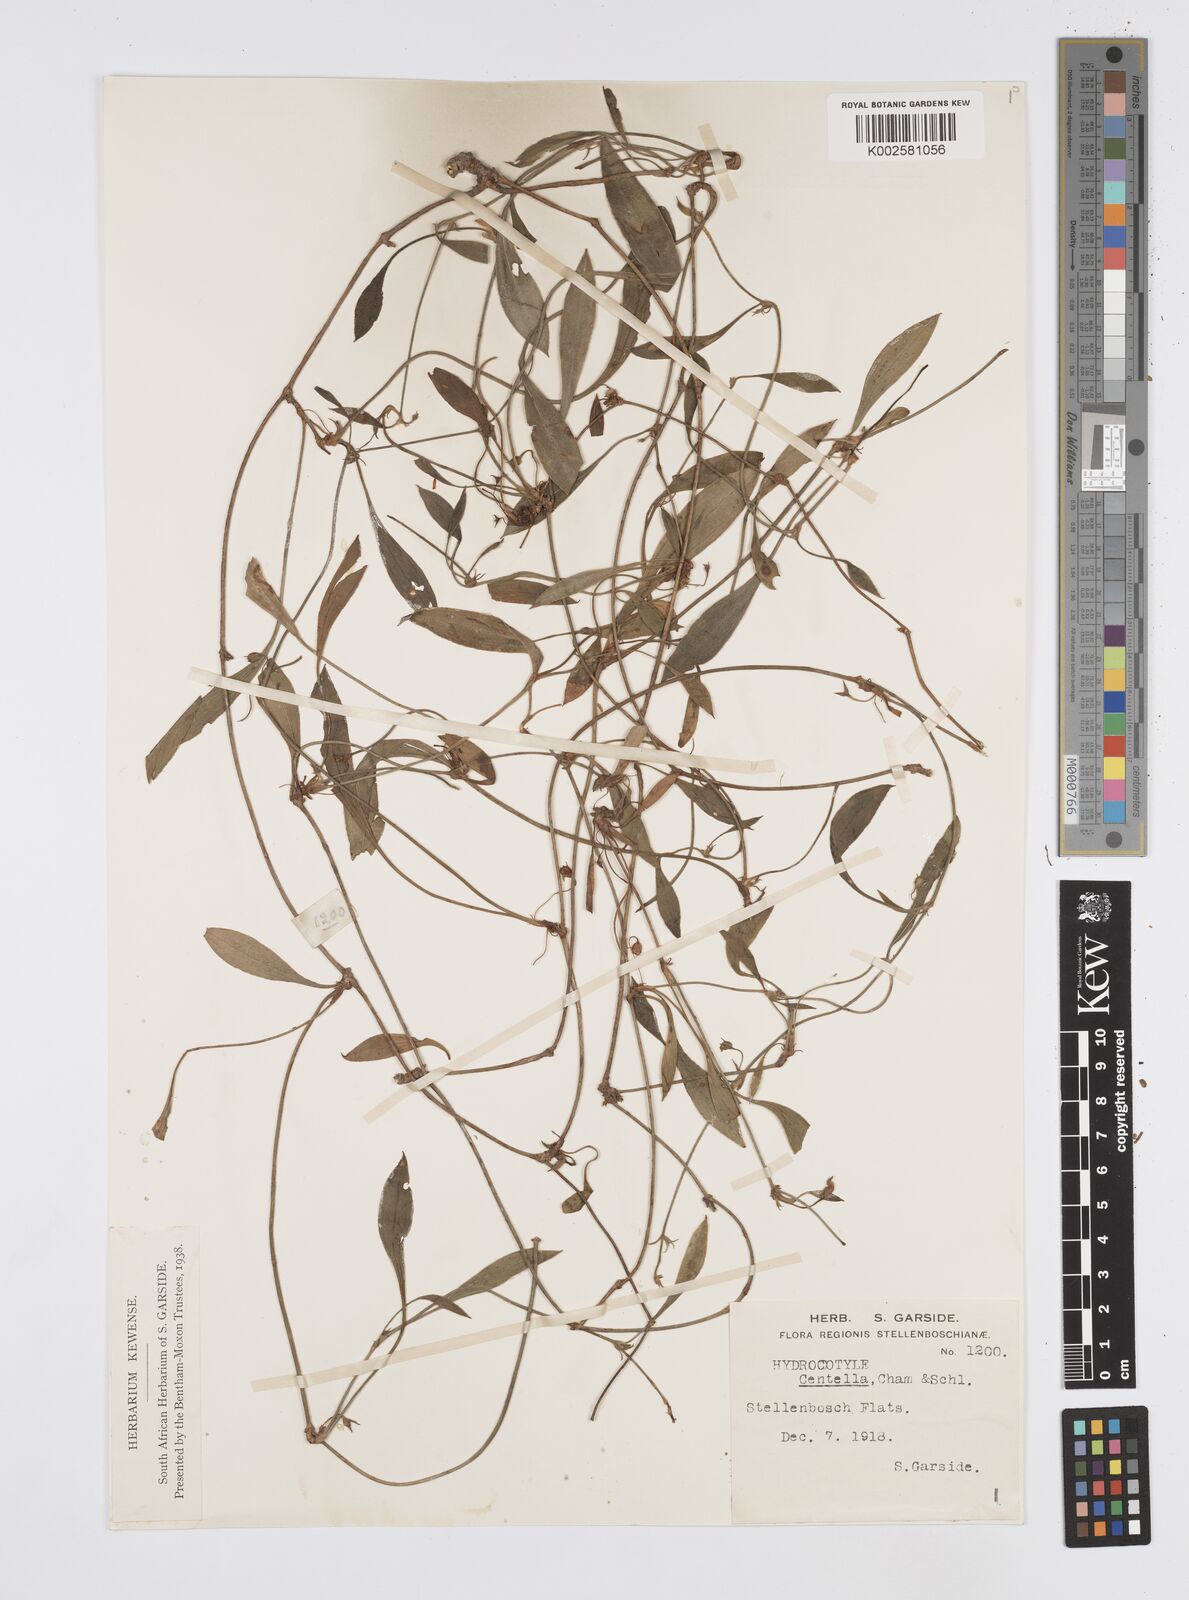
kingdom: Plantae
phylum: Tracheophyta
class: Magnoliopsida
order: Apiales
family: Apiaceae
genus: Centella
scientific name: Centella glabrata
